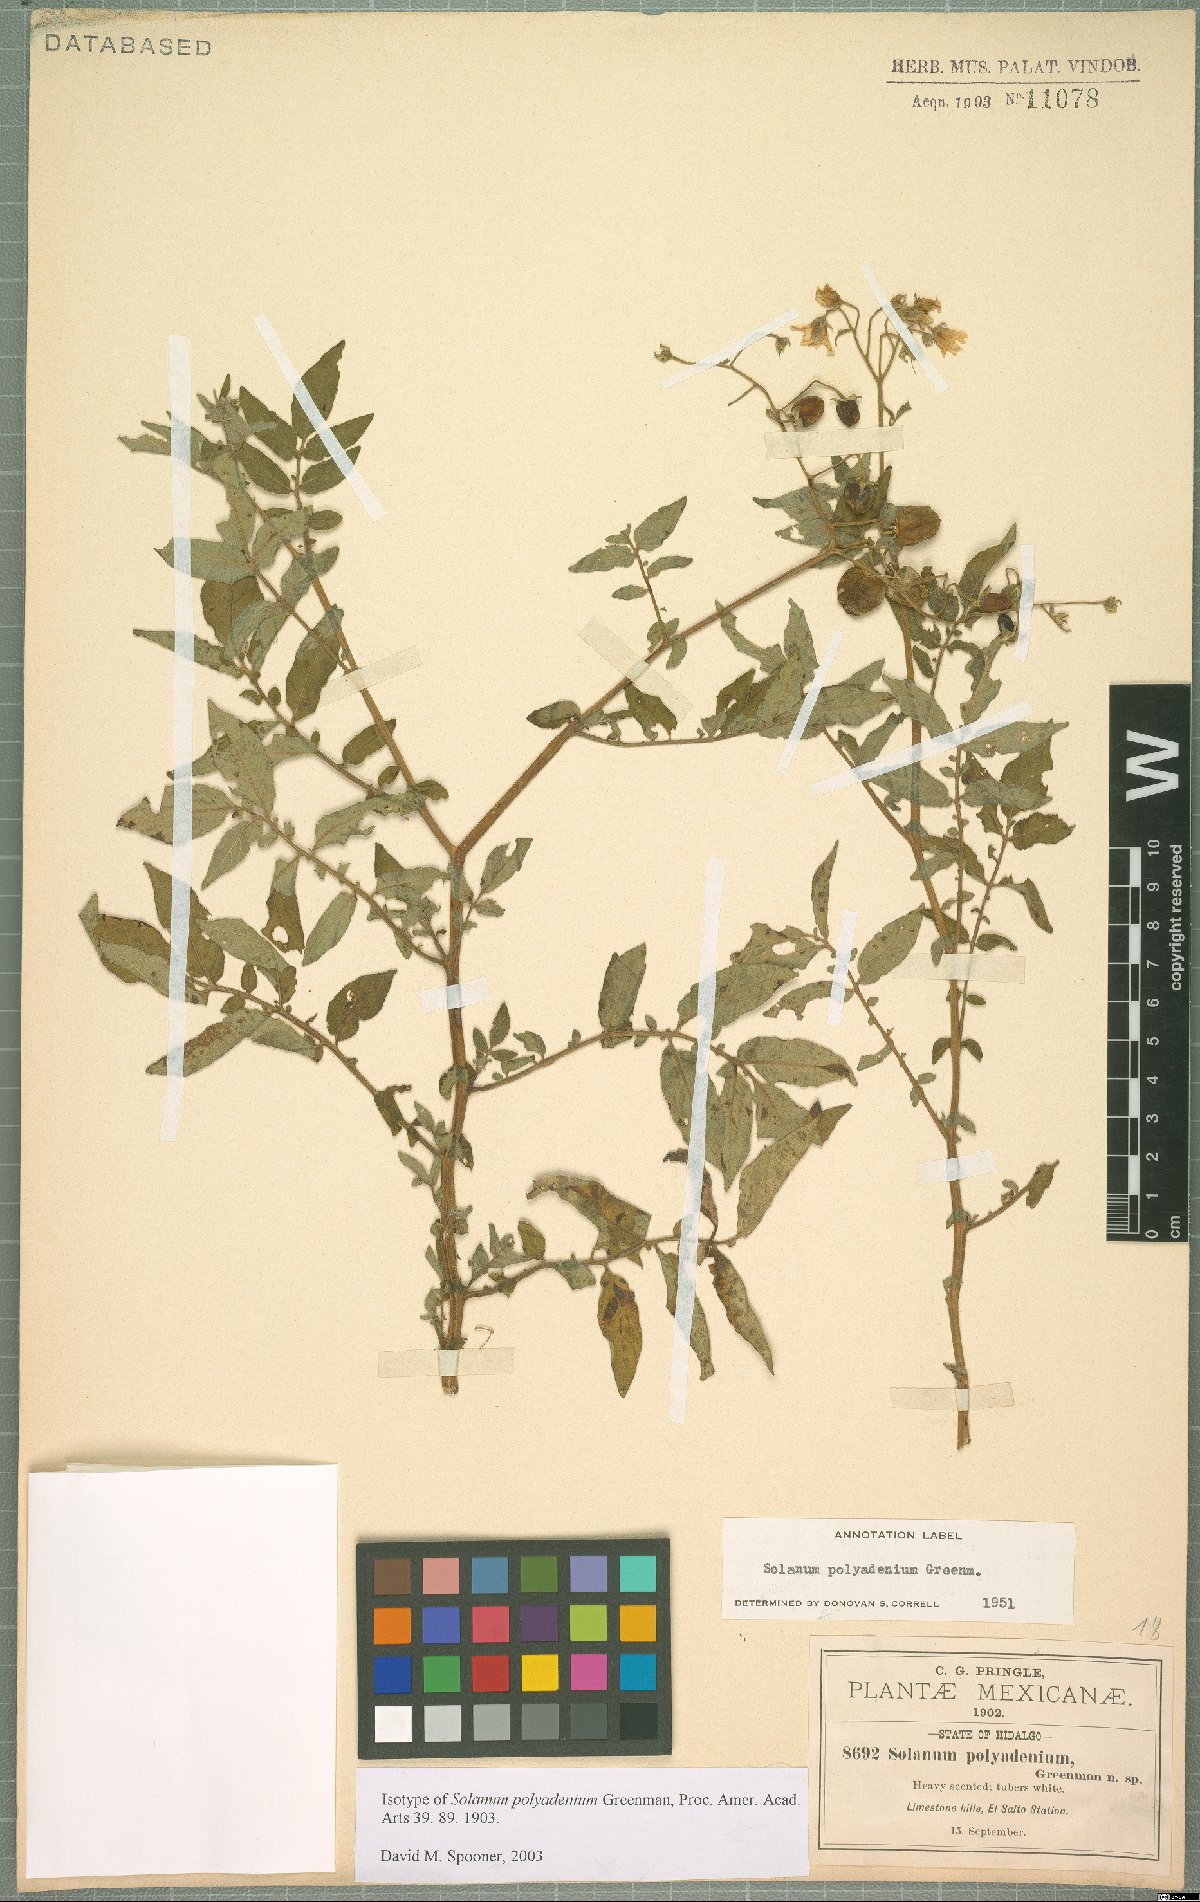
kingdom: Plantae
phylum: Tracheophyta
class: Magnoliopsida
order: Solanales
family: Solanaceae
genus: Solanum
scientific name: Solanum polyadenium
